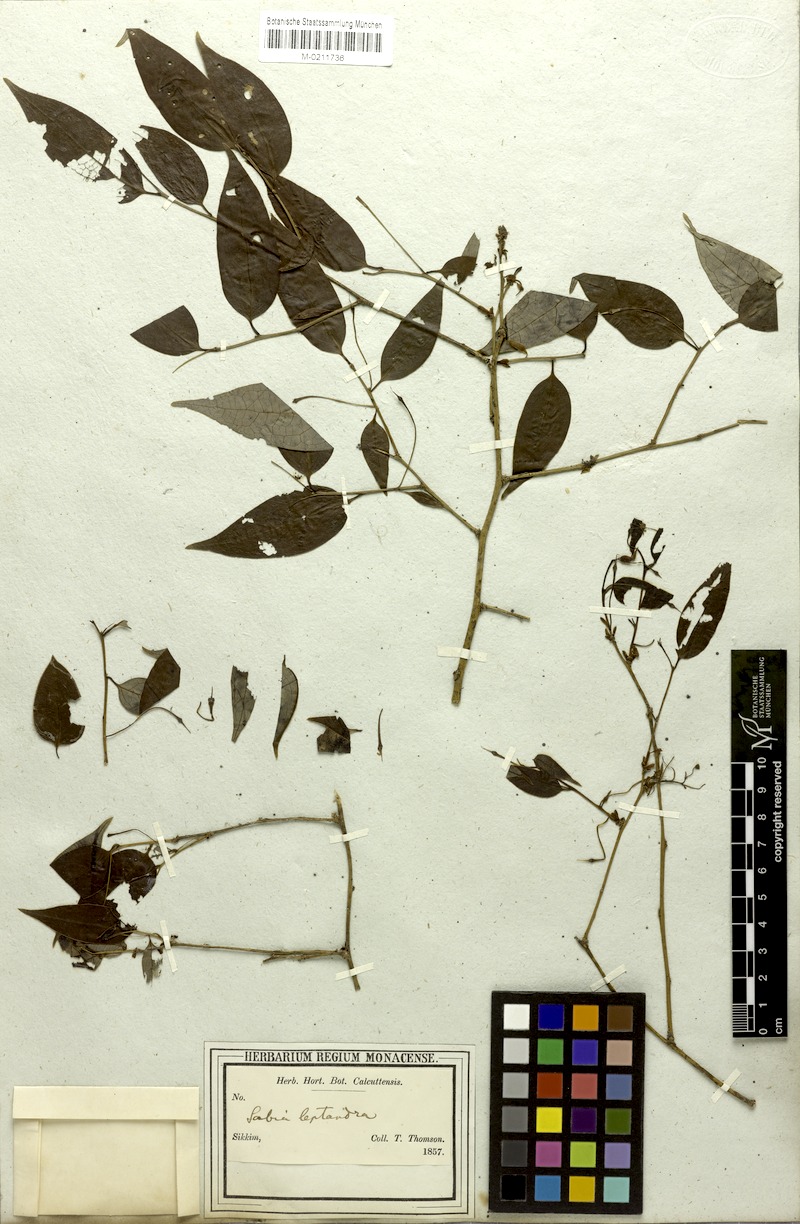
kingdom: Plantae
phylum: Tracheophyta
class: Magnoliopsida
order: Proteales
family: Sabiaceae
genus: Sabia
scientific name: Sabia
